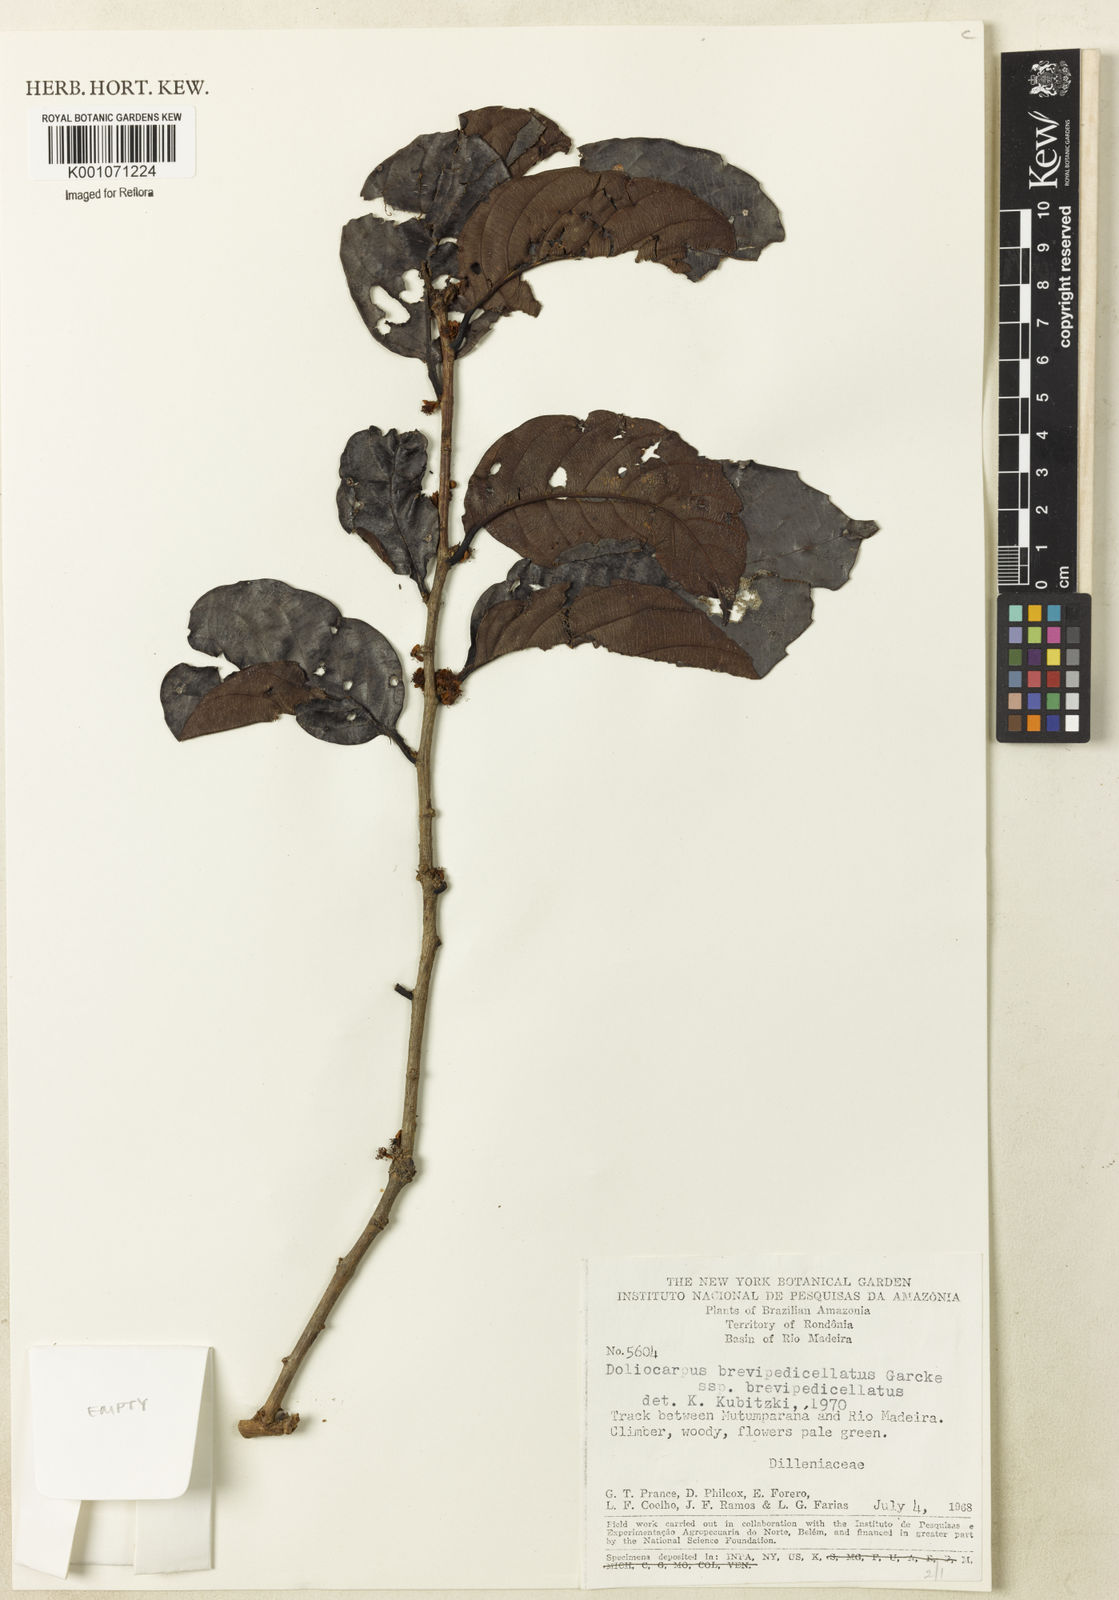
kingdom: Plantae
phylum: Tracheophyta
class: Magnoliopsida
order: Dilleniales
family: Dilleniaceae
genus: Doliocarpus
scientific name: Doliocarpus brevipedicellatus
